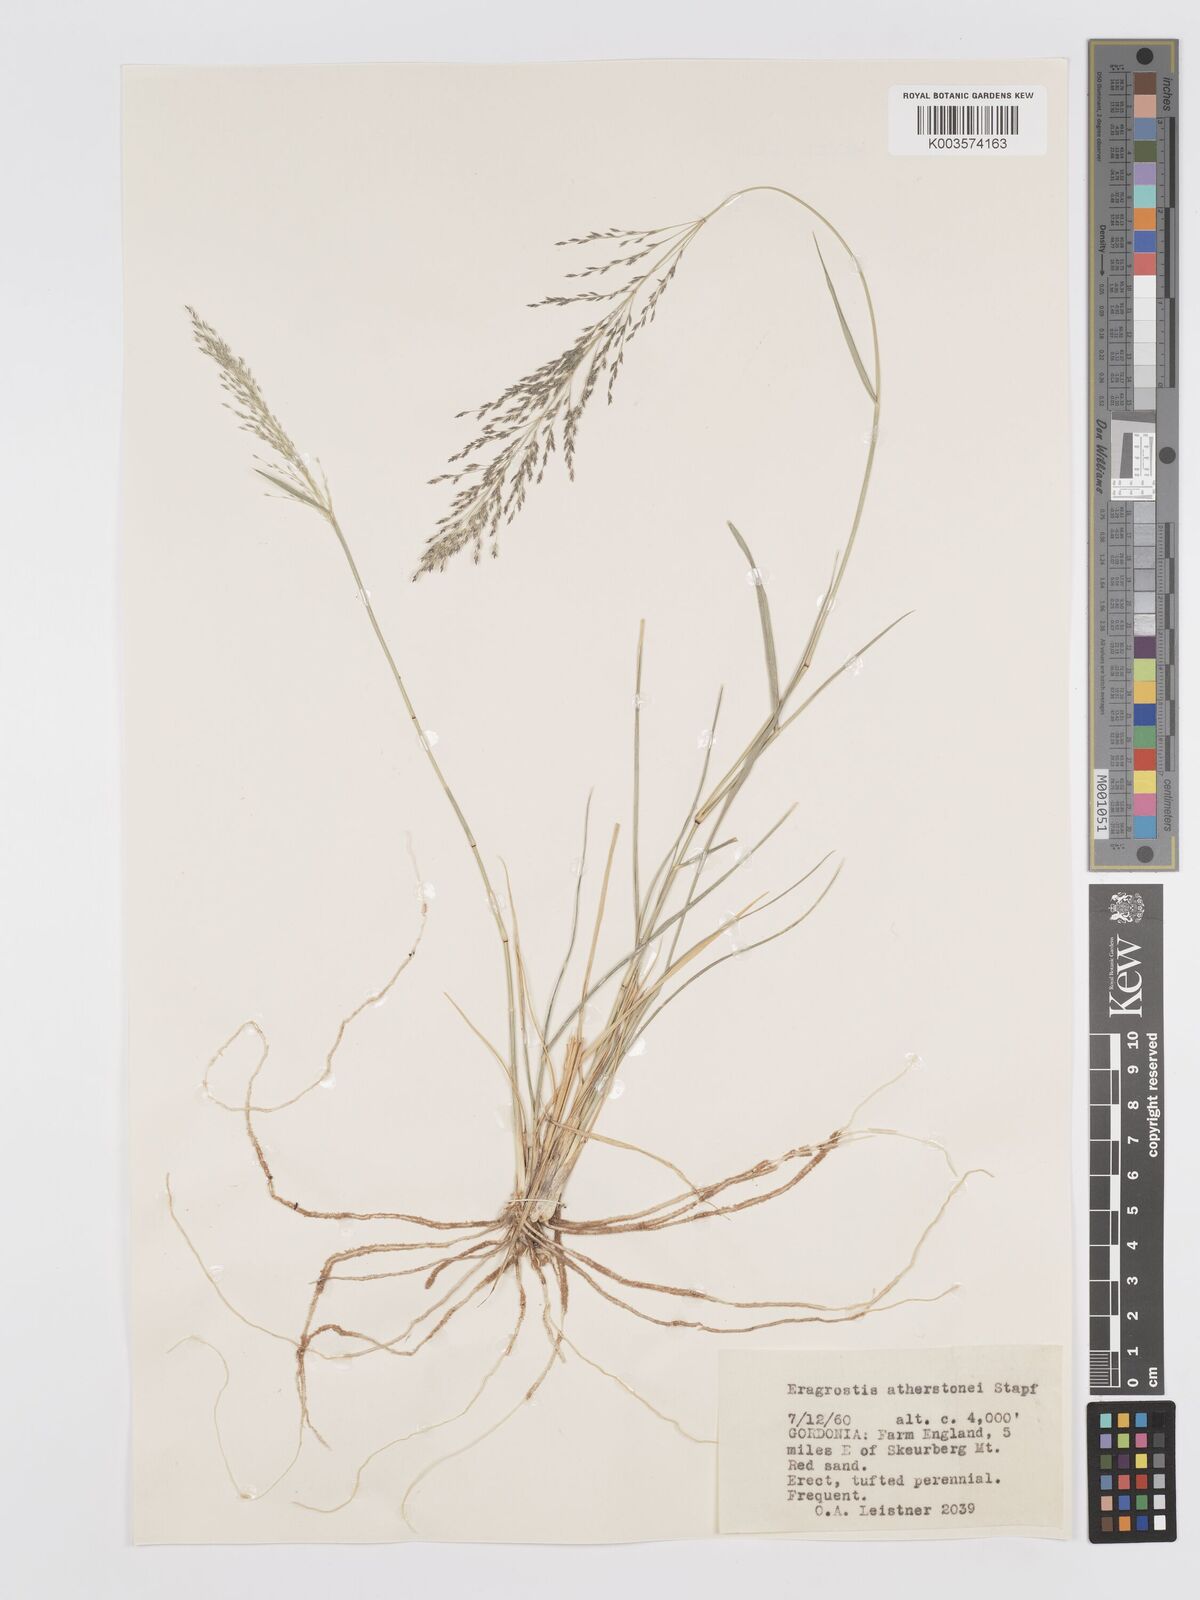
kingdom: Plantae
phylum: Tracheophyta
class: Liliopsida
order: Poales
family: Poaceae
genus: Eragrostis
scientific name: Eragrostis cylindriflora
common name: Cylinderflower lovegrass
